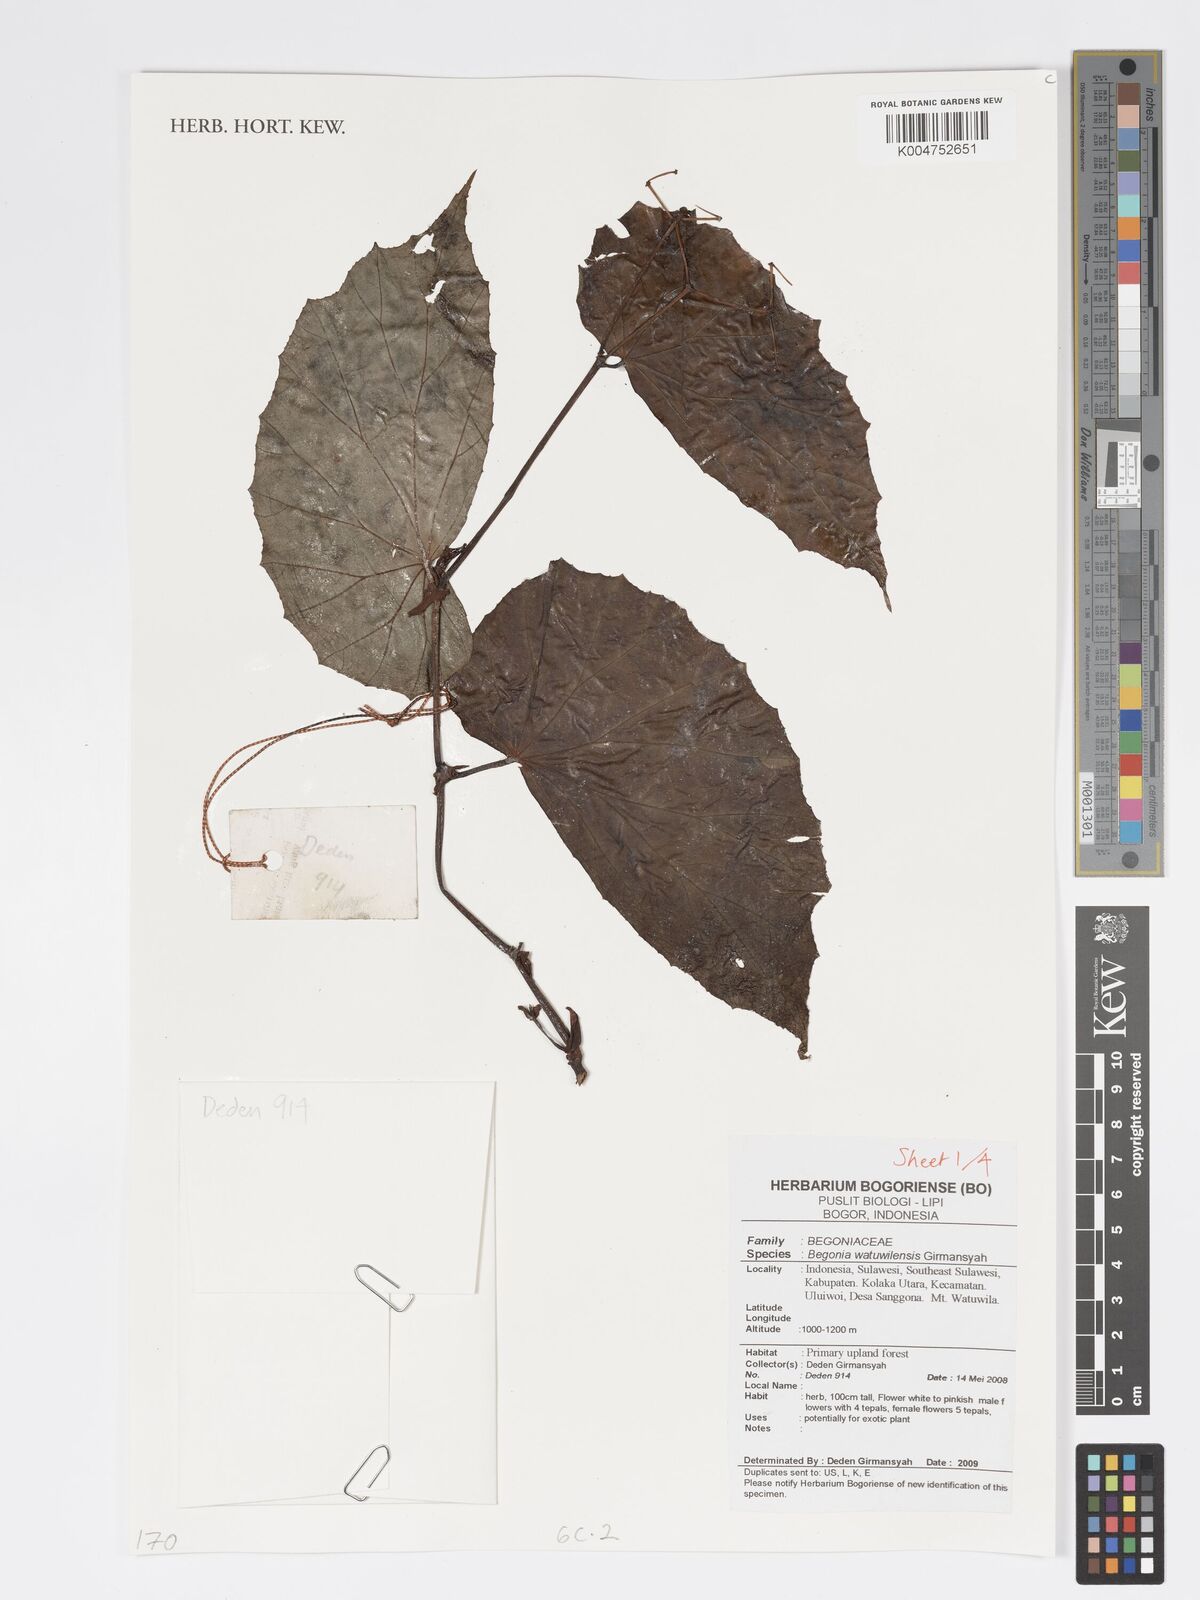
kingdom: Plantae
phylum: Tracheophyta
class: Magnoliopsida
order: Cucurbitales
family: Begoniaceae
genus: Begonia
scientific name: Begonia watuwilensis
